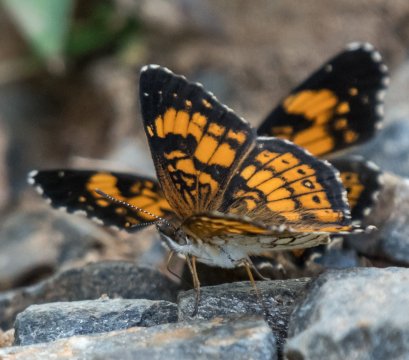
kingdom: Animalia
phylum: Arthropoda
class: Insecta
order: Lepidoptera
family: Nymphalidae
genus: Chlosyne
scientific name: Chlosyne nycteis
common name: Silvery Checkerspot
